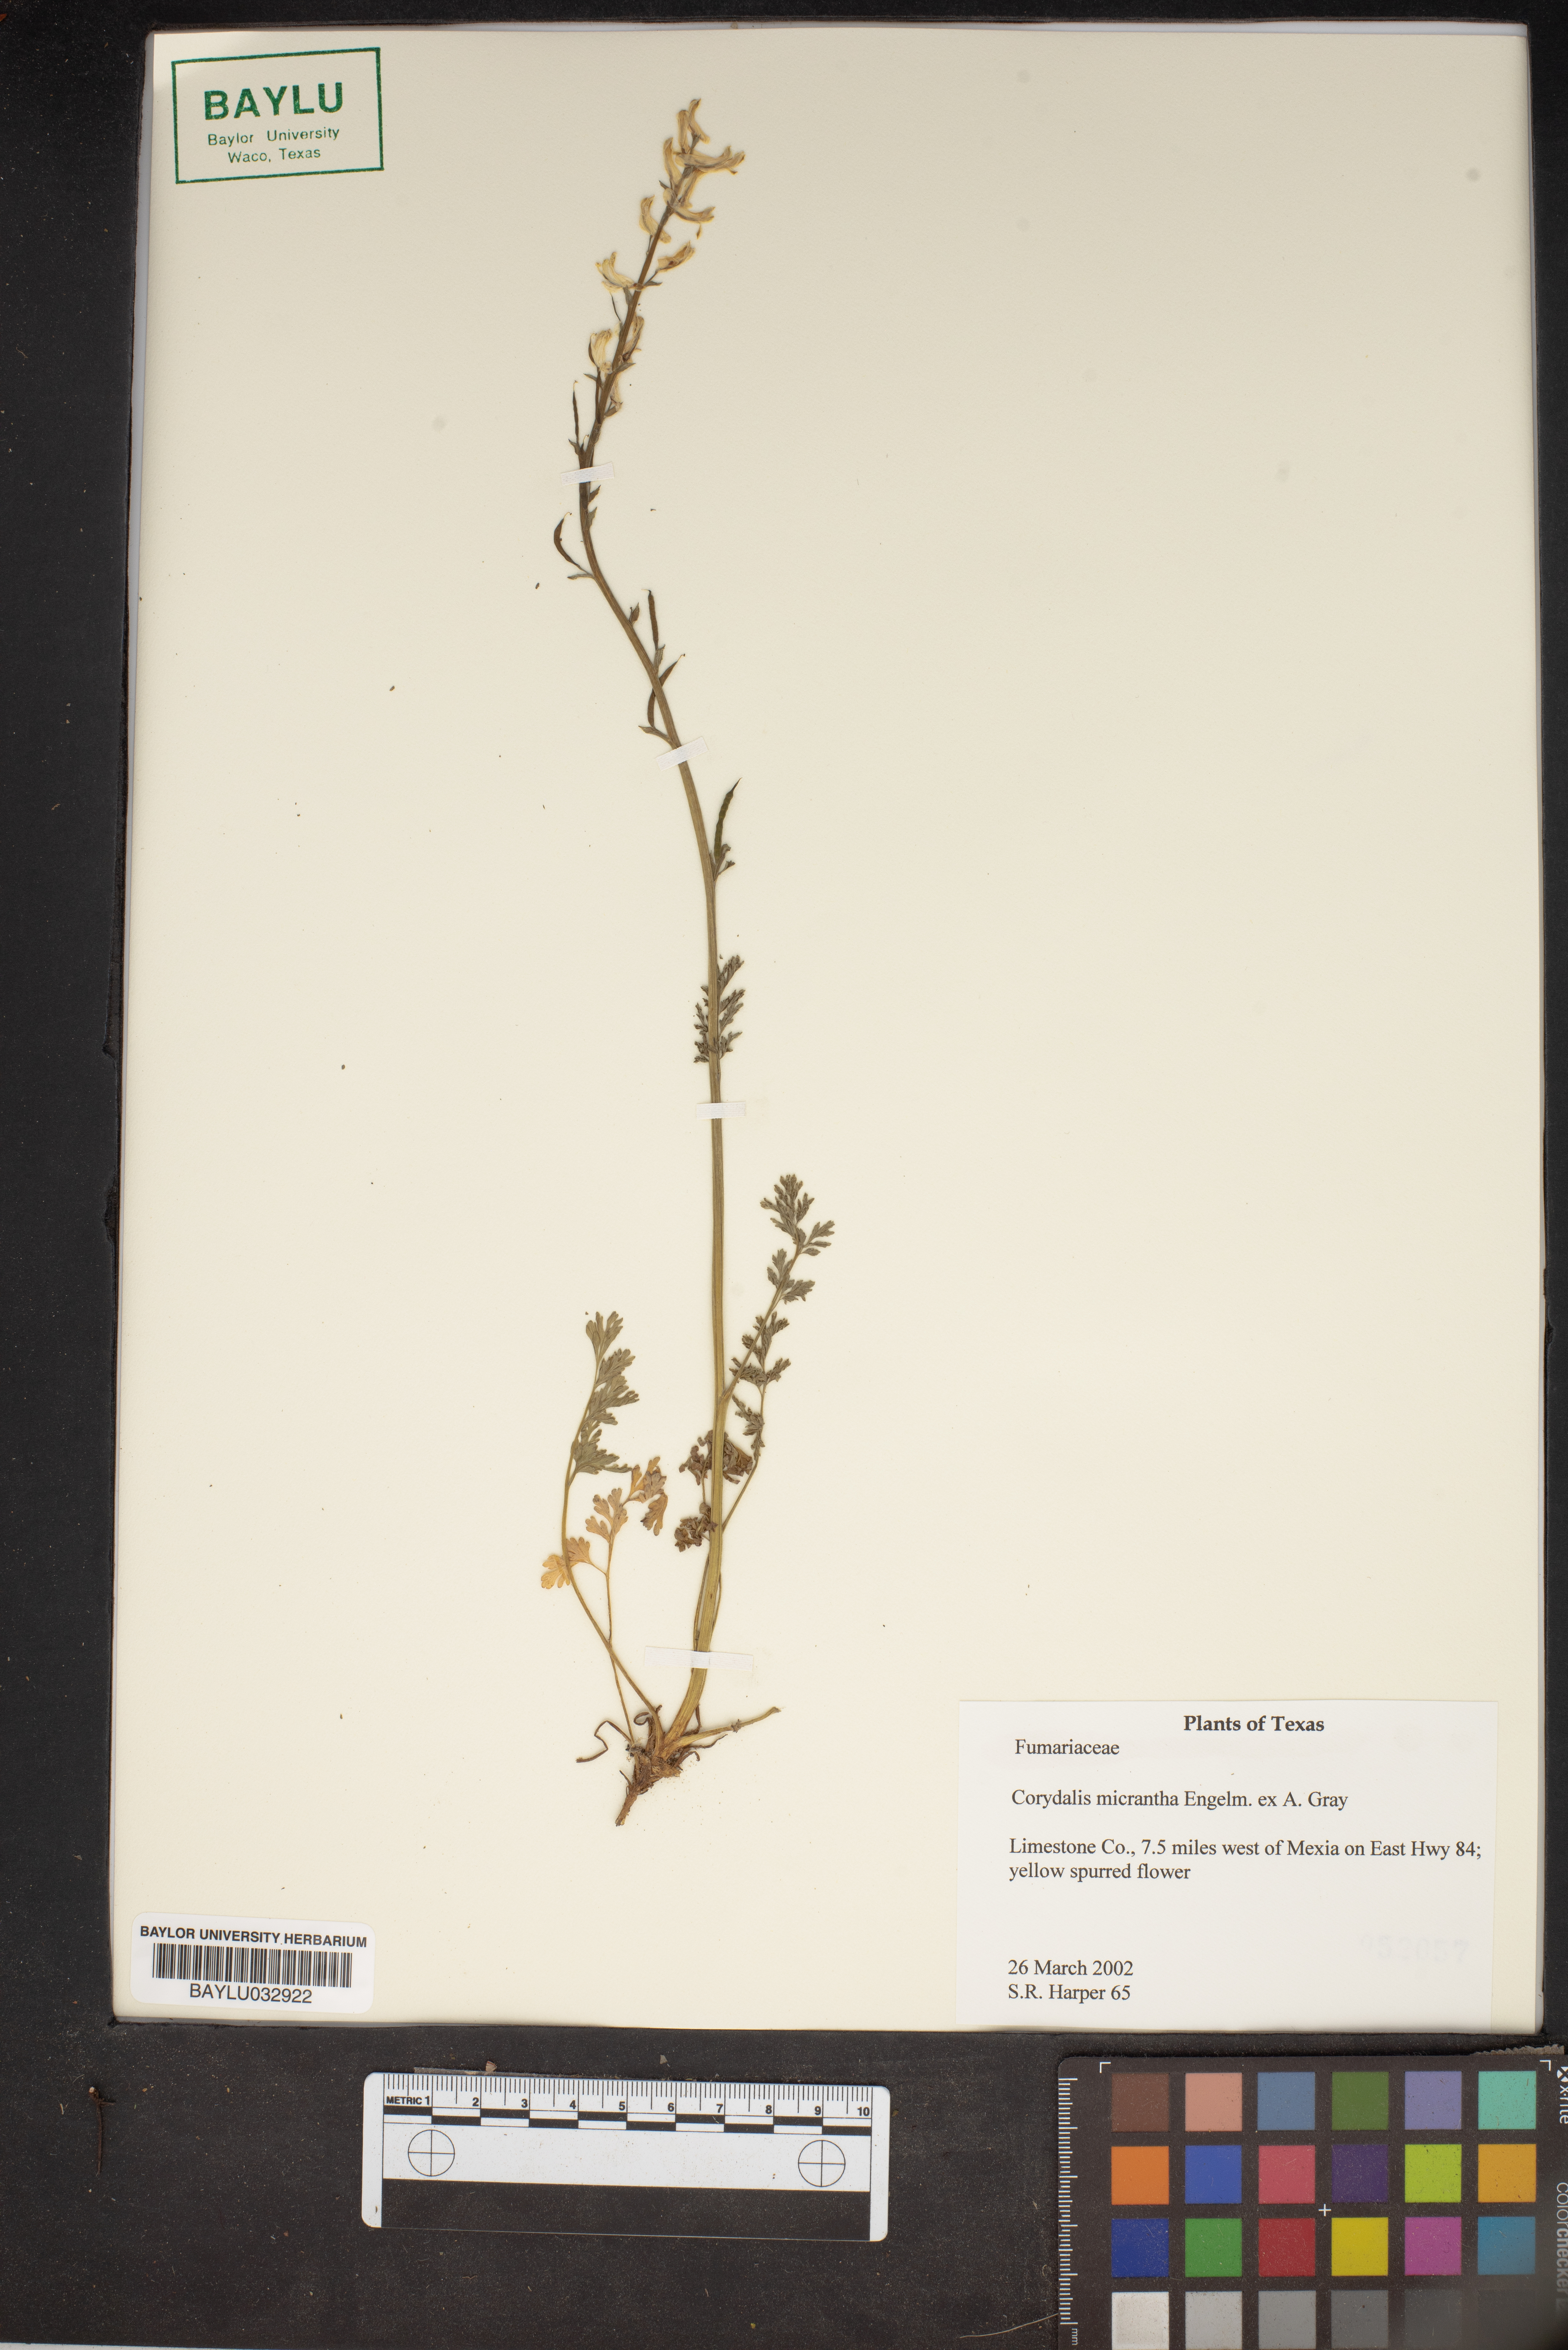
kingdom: Plantae
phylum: Tracheophyta
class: Magnoliopsida
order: Ranunculales
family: Papaveraceae
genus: Corydalis
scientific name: Corydalis micrantha
